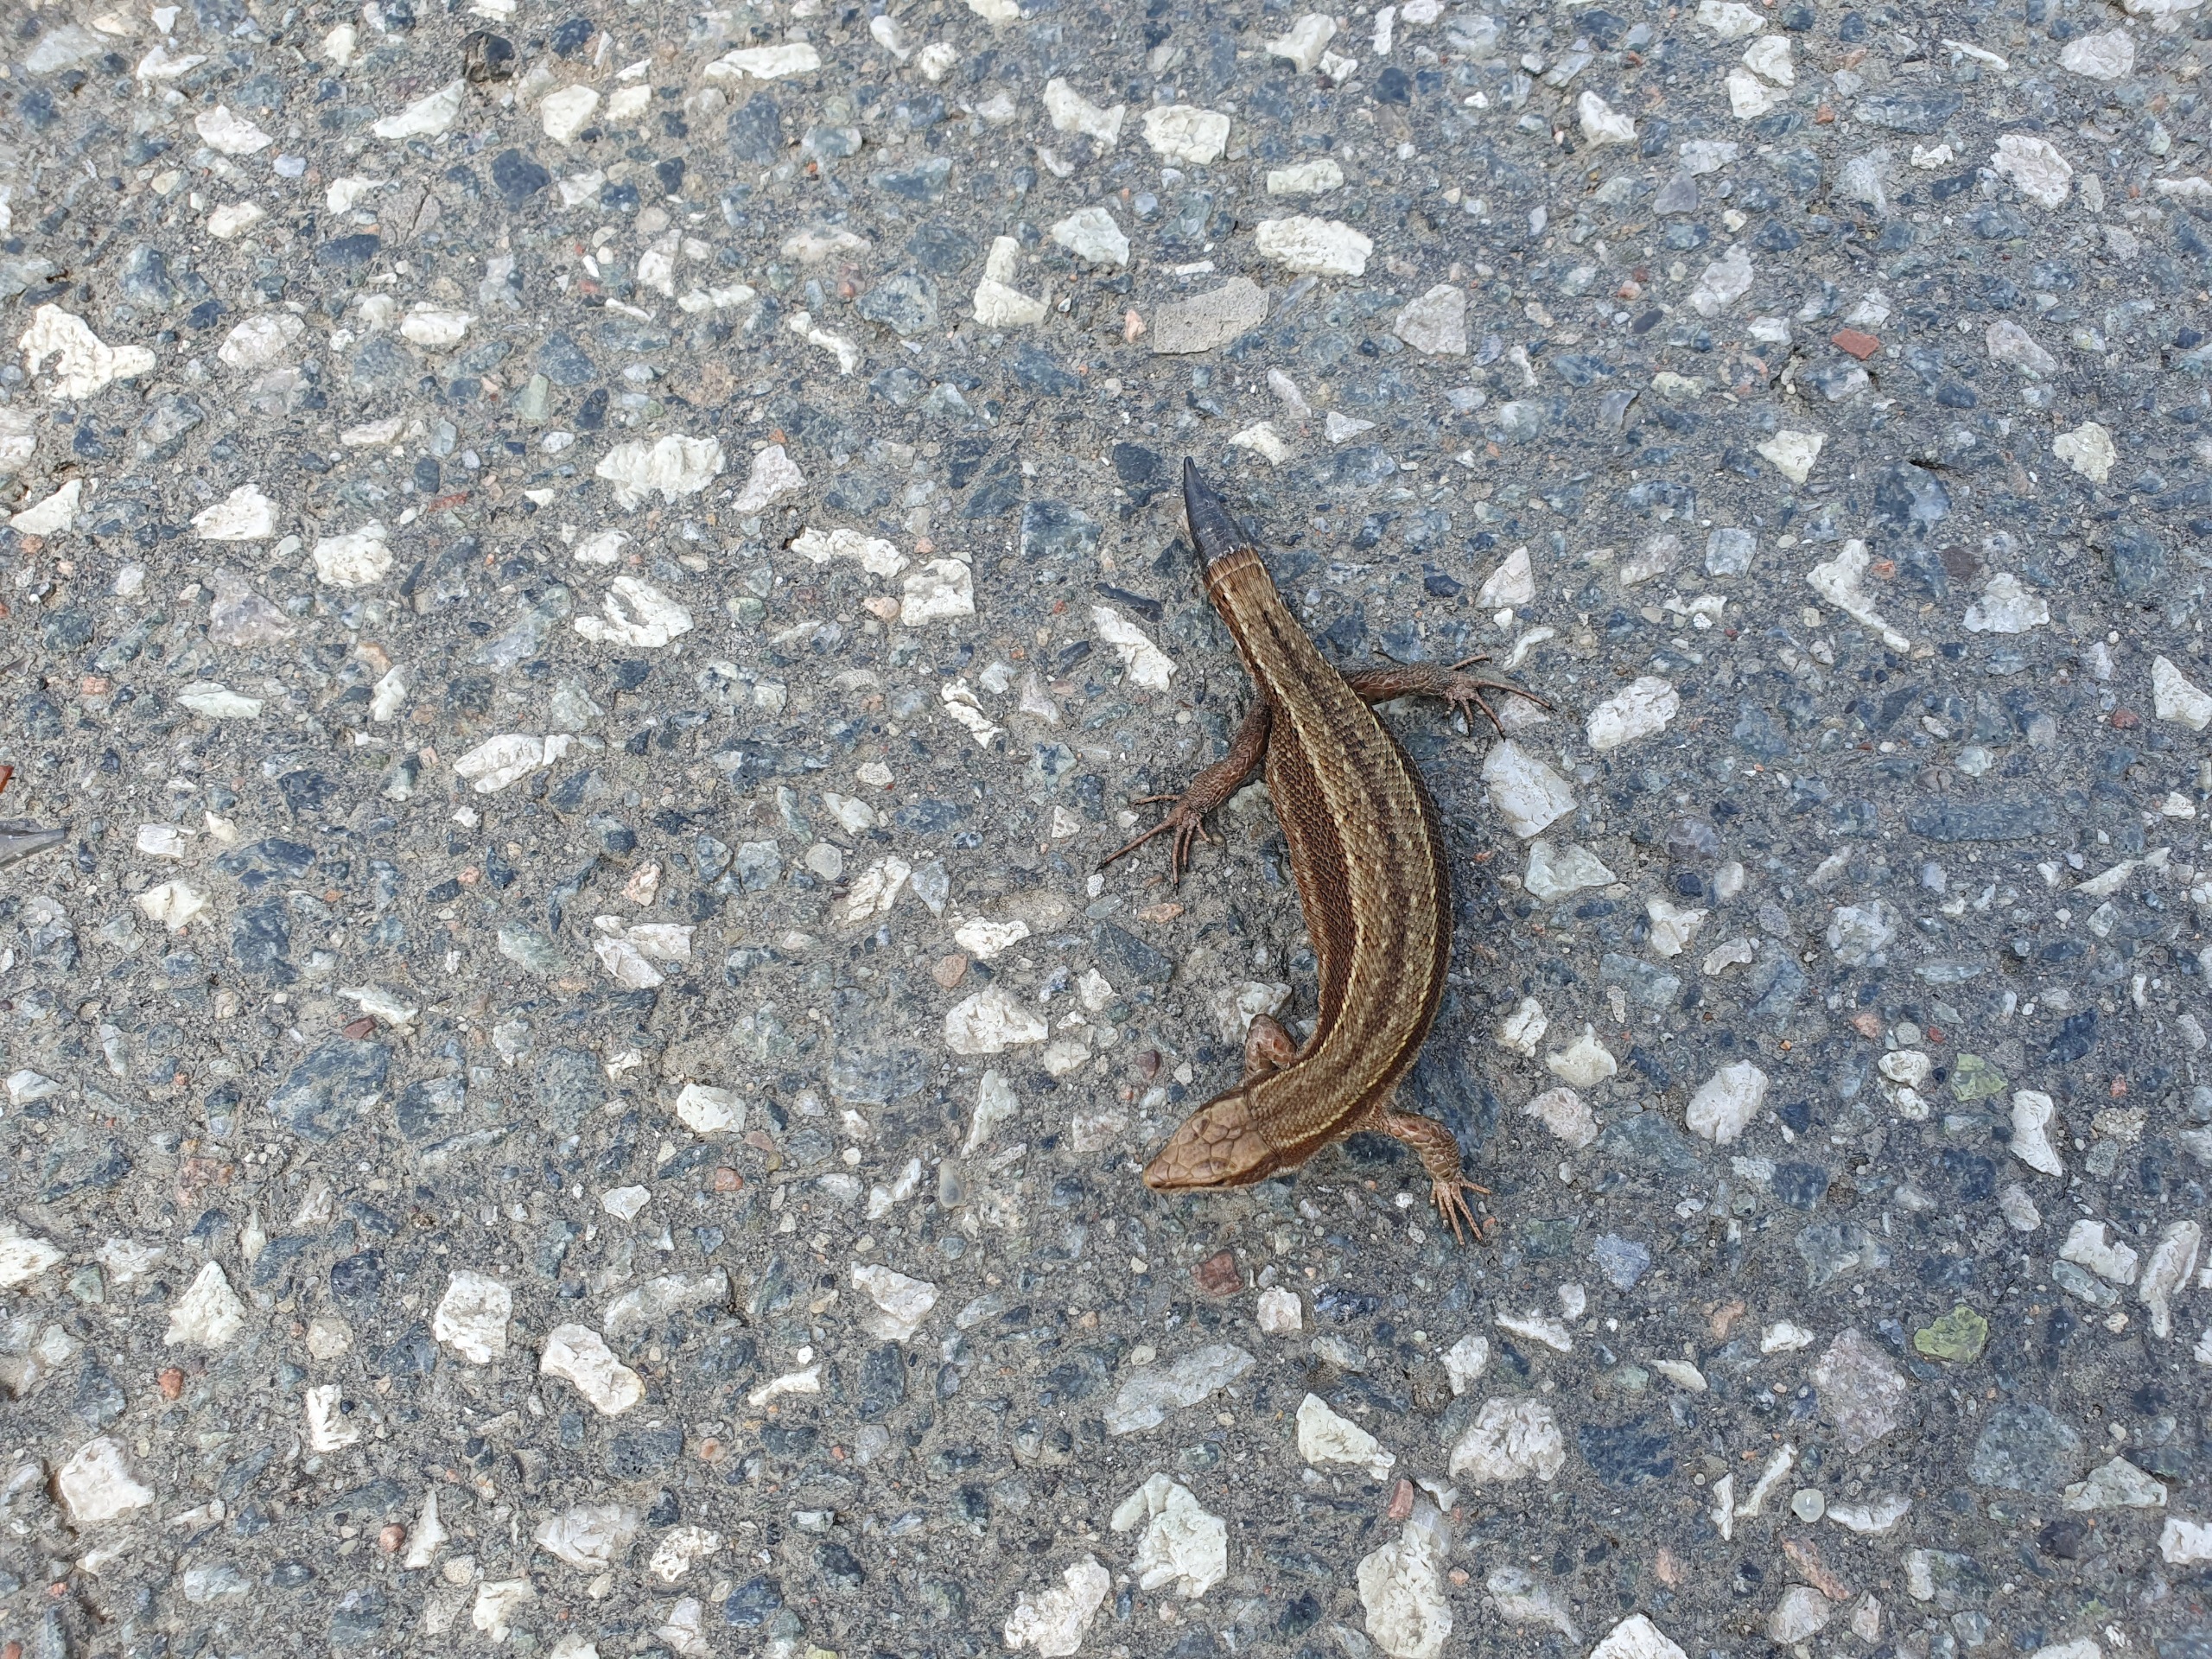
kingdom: Animalia
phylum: Chordata
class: Squamata
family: Lacertidae
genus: Zootoca
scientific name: Zootoca vivipara
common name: Skovfirben
